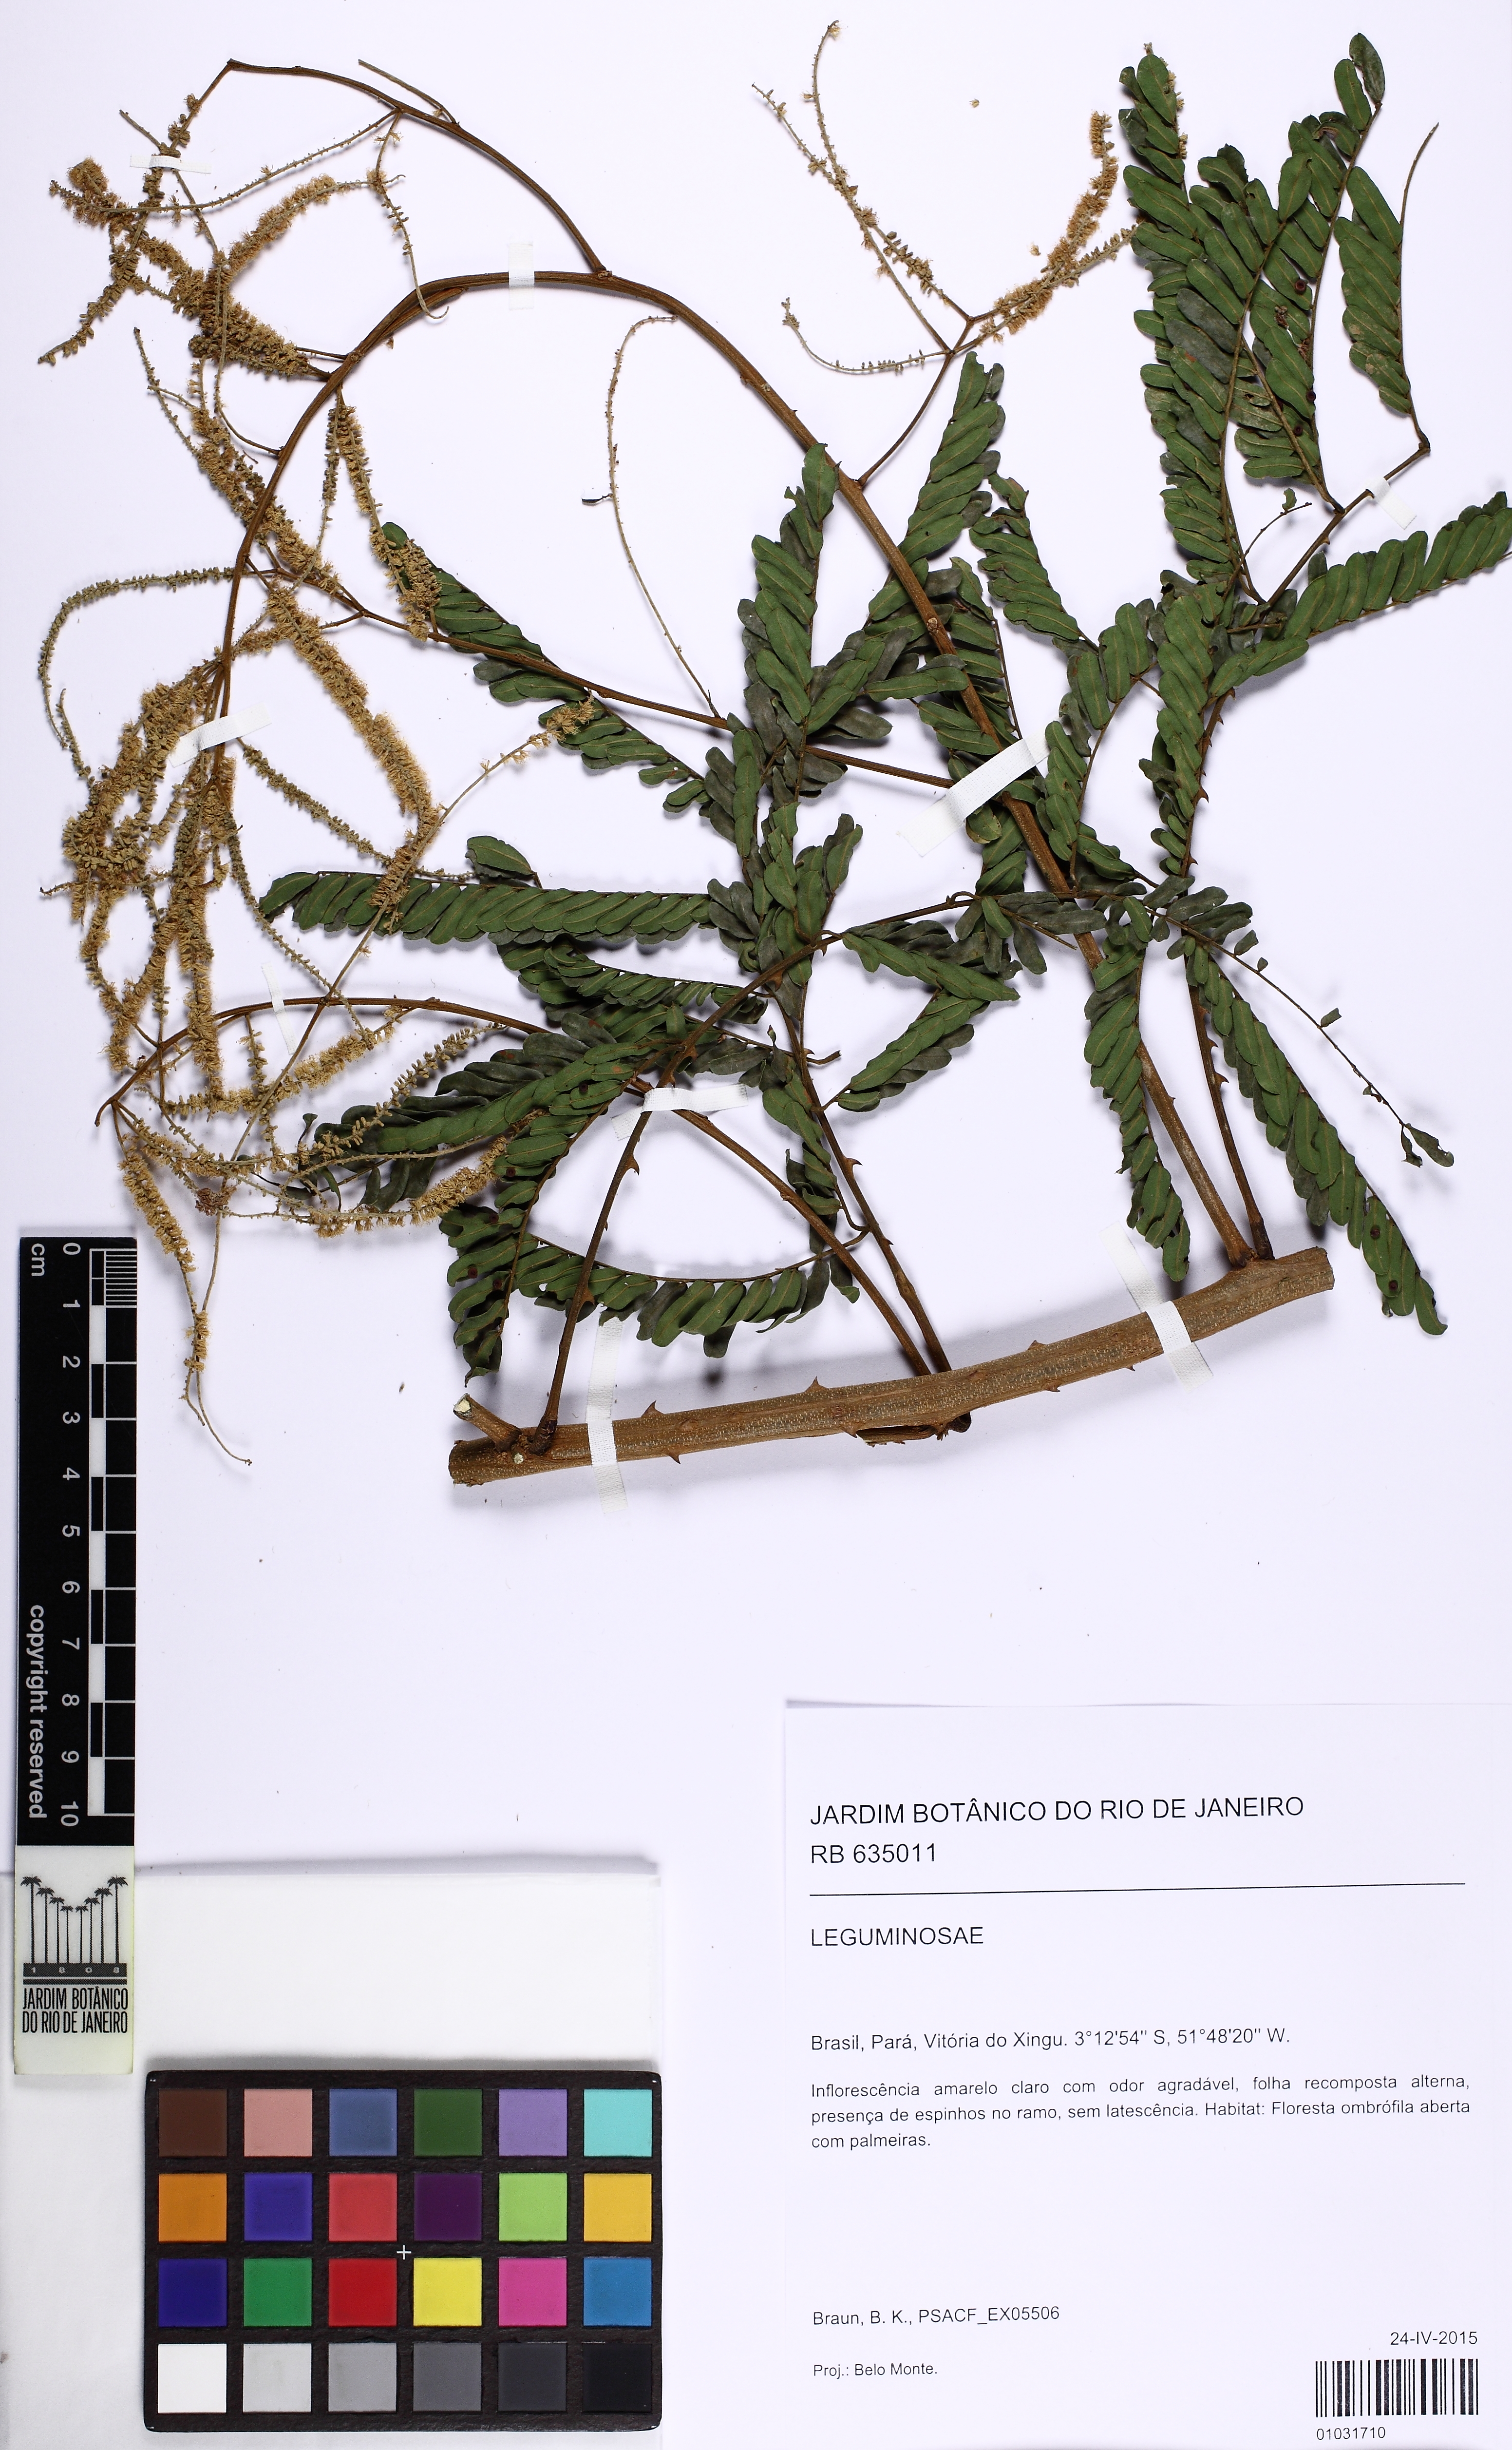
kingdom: Plantae
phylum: Tracheophyta
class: Magnoliopsida
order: Fabales
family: Fabaceae
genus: Piptadenia
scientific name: Piptadenia
